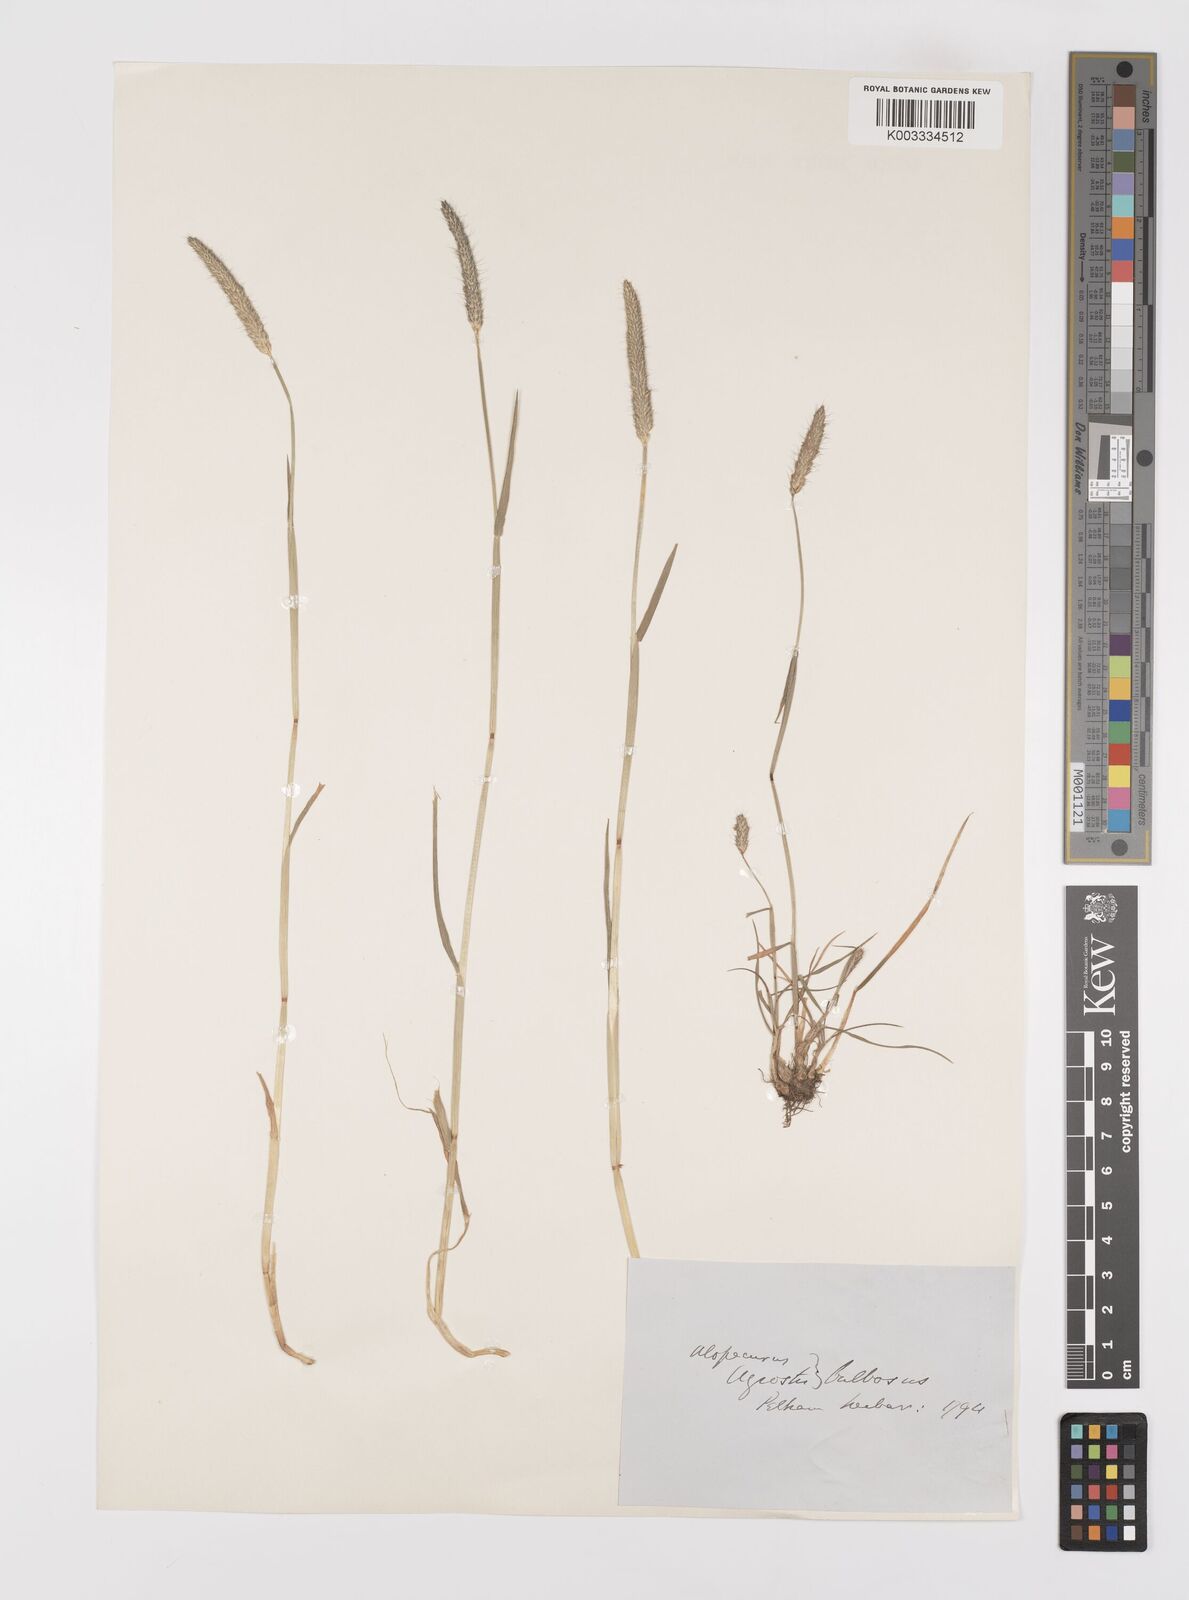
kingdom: Plantae
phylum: Tracheophyta
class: Liliopsida
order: Poales
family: Poaceae
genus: Alopecurus
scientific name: Alopecurus bulbosus
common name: Bulbous foxtail
